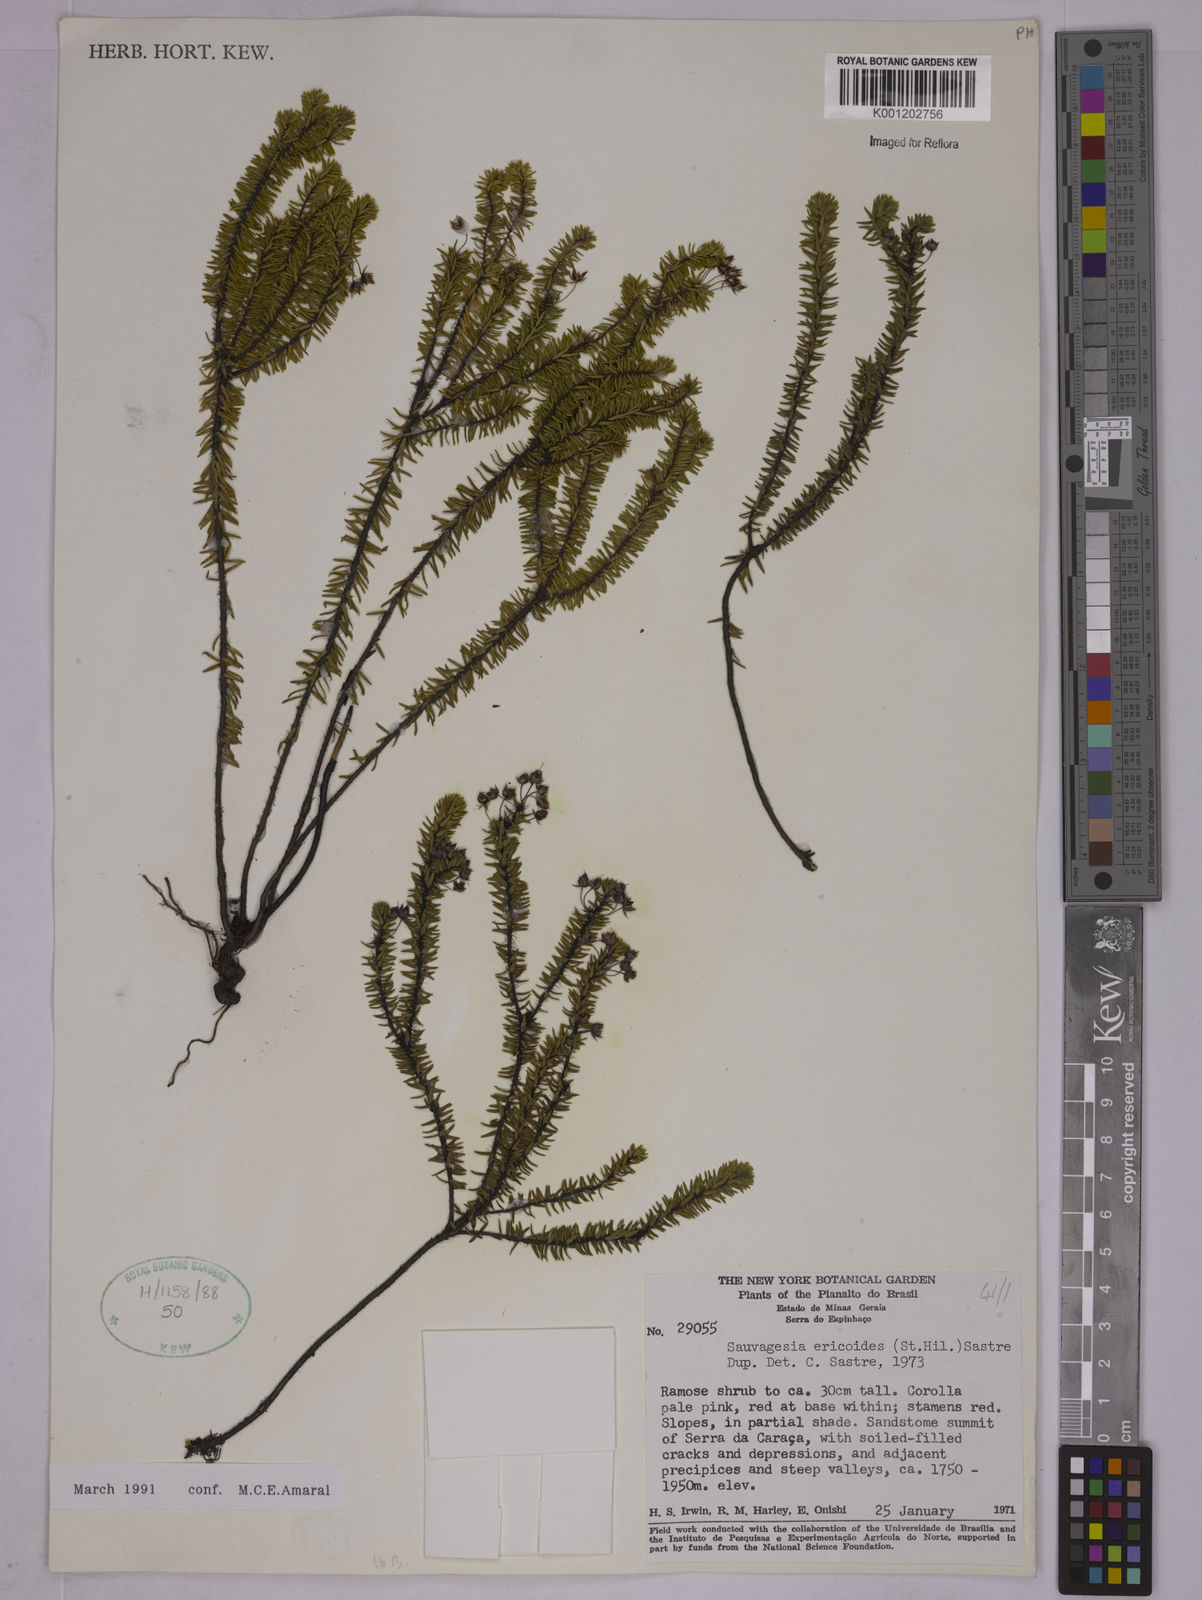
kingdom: Plantae
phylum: Tracheophyta
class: Magnoliopsida
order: Malpighiales
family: Ochnaceae
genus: Sauvagesia
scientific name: Sauvagesia ericoides
